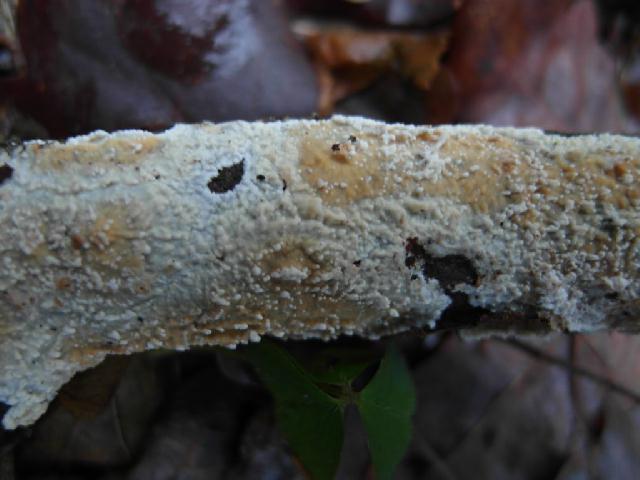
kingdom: Fungi
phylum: Basidiomycota
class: Agaricomycetes
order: Hymenochaetales
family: Schizoporaceae
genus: Xylodon
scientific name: Xylodon radula
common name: grovtandet kalkskind
